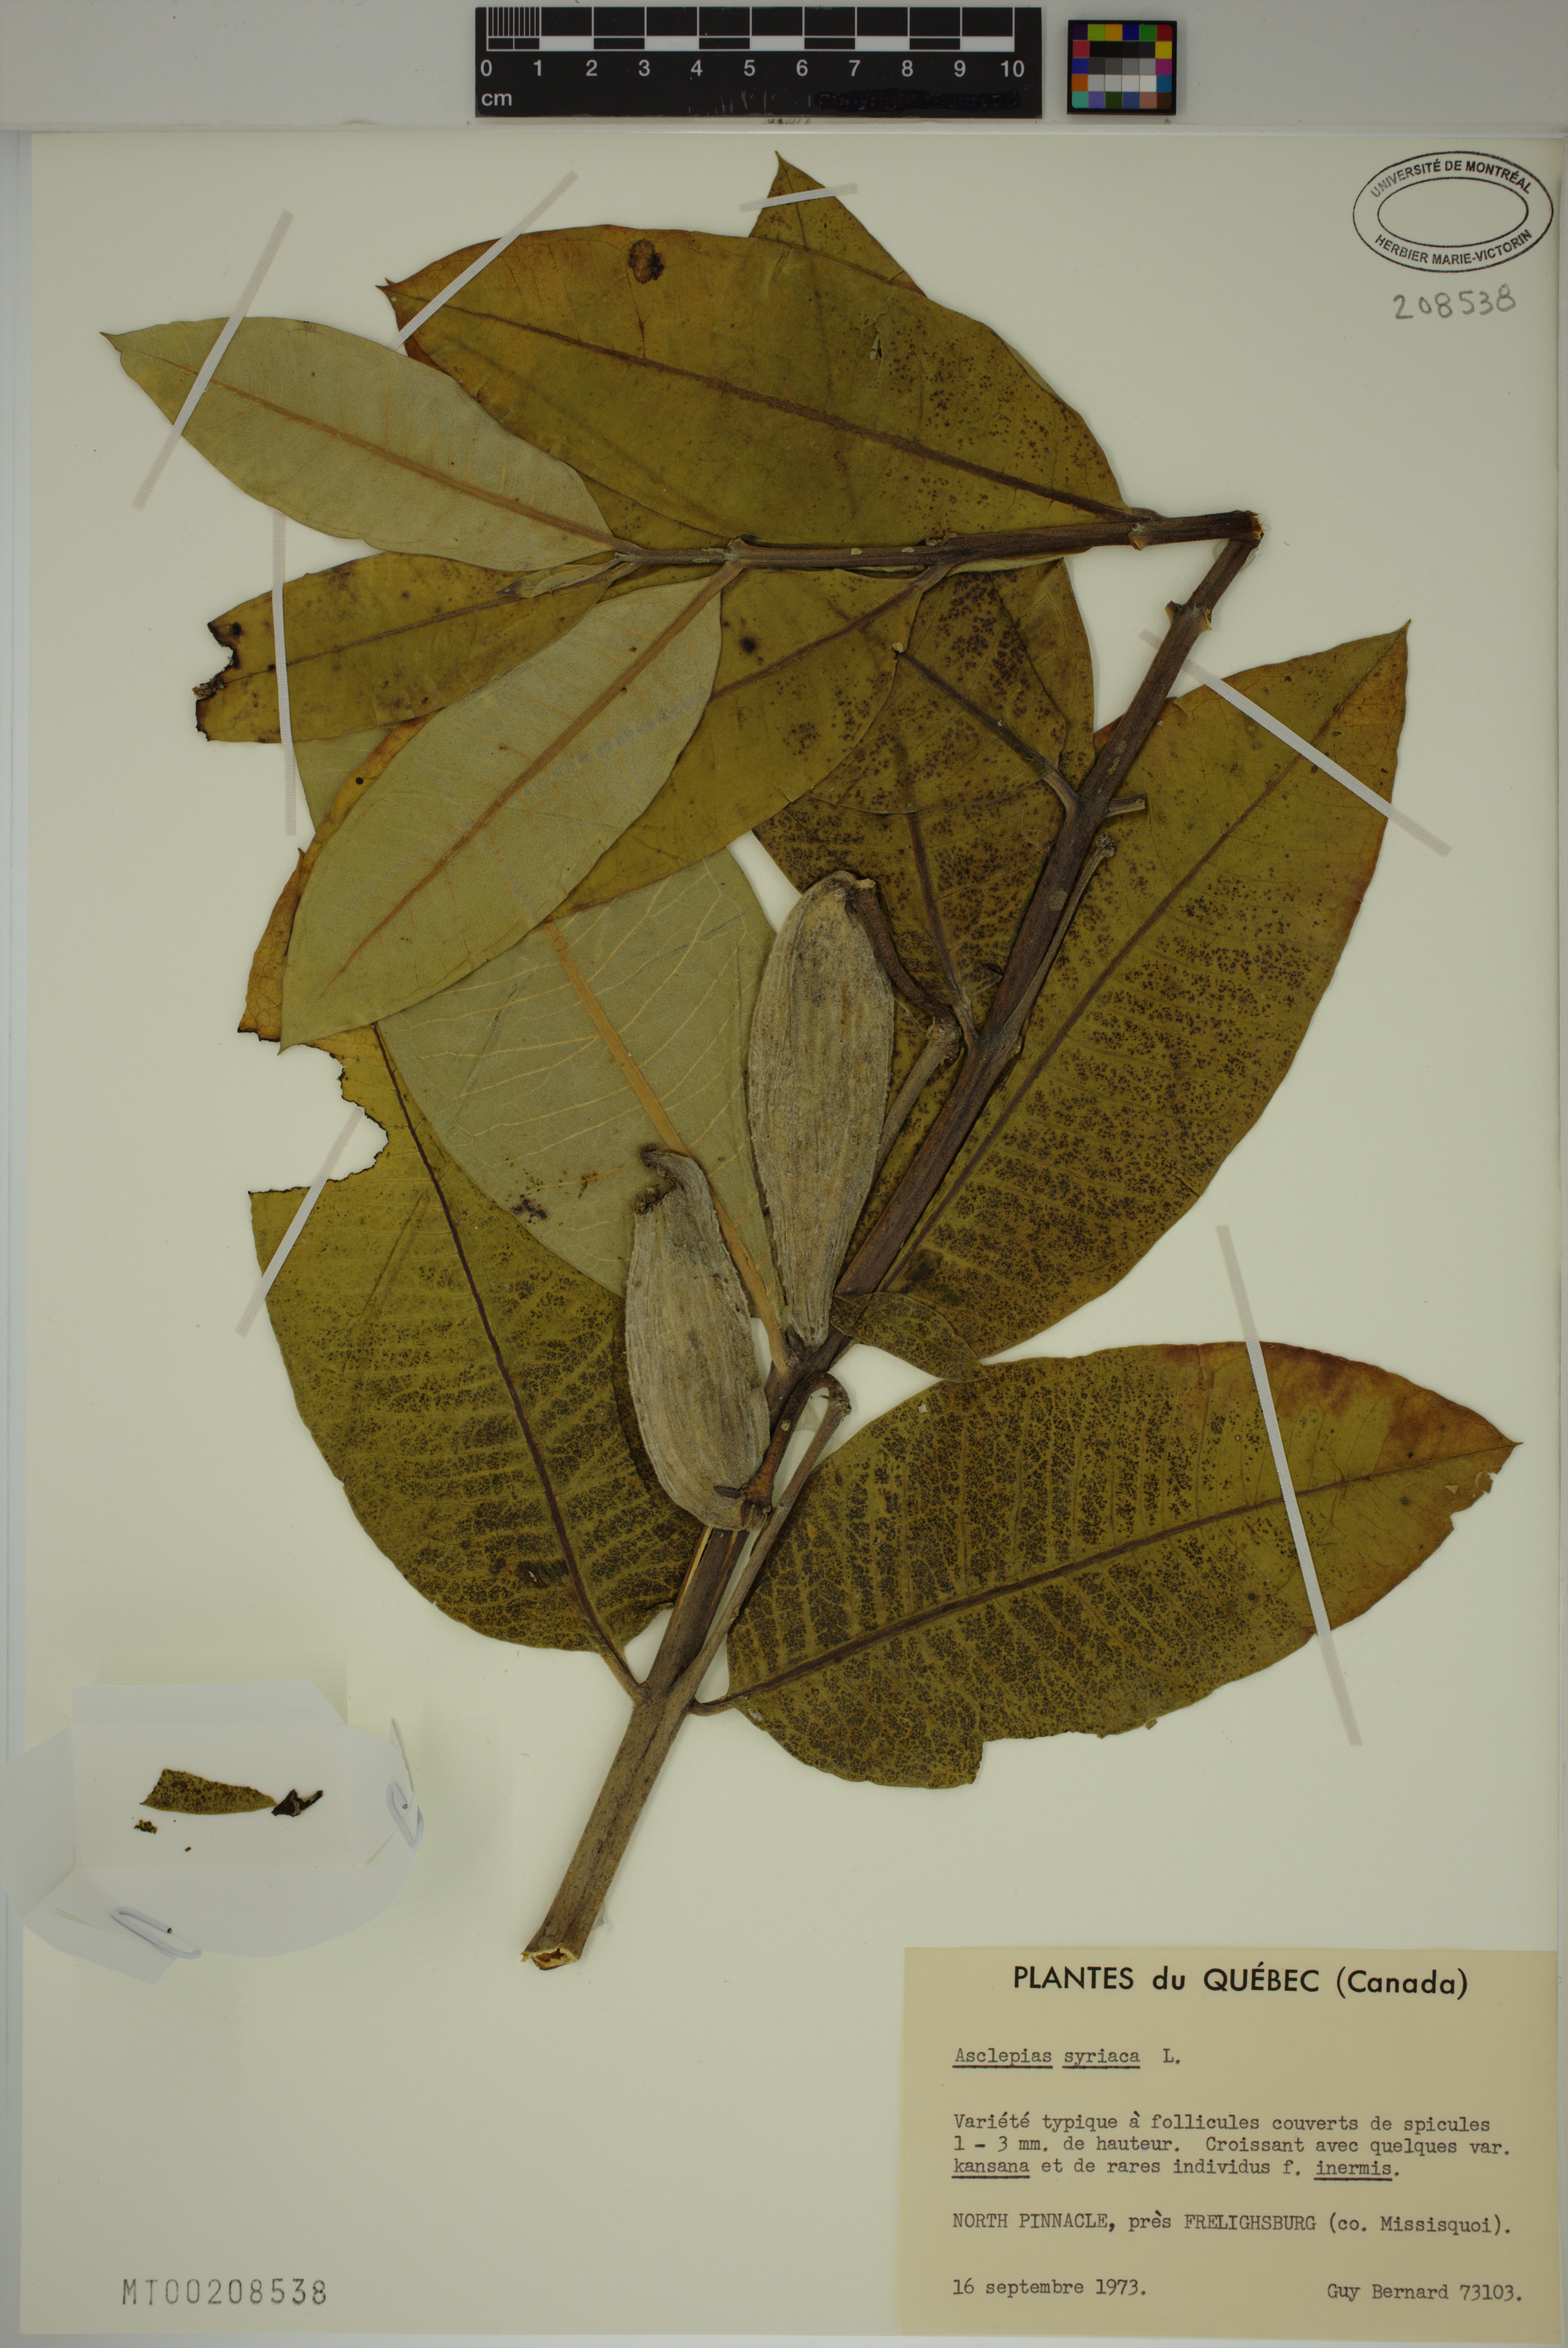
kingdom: Plantae
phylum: Tracheophyta
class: Magnoliopsida
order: Gentianales
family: Apocynaceae
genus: Asclepias
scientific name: Asclepias syriaca
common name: Common milkweed
